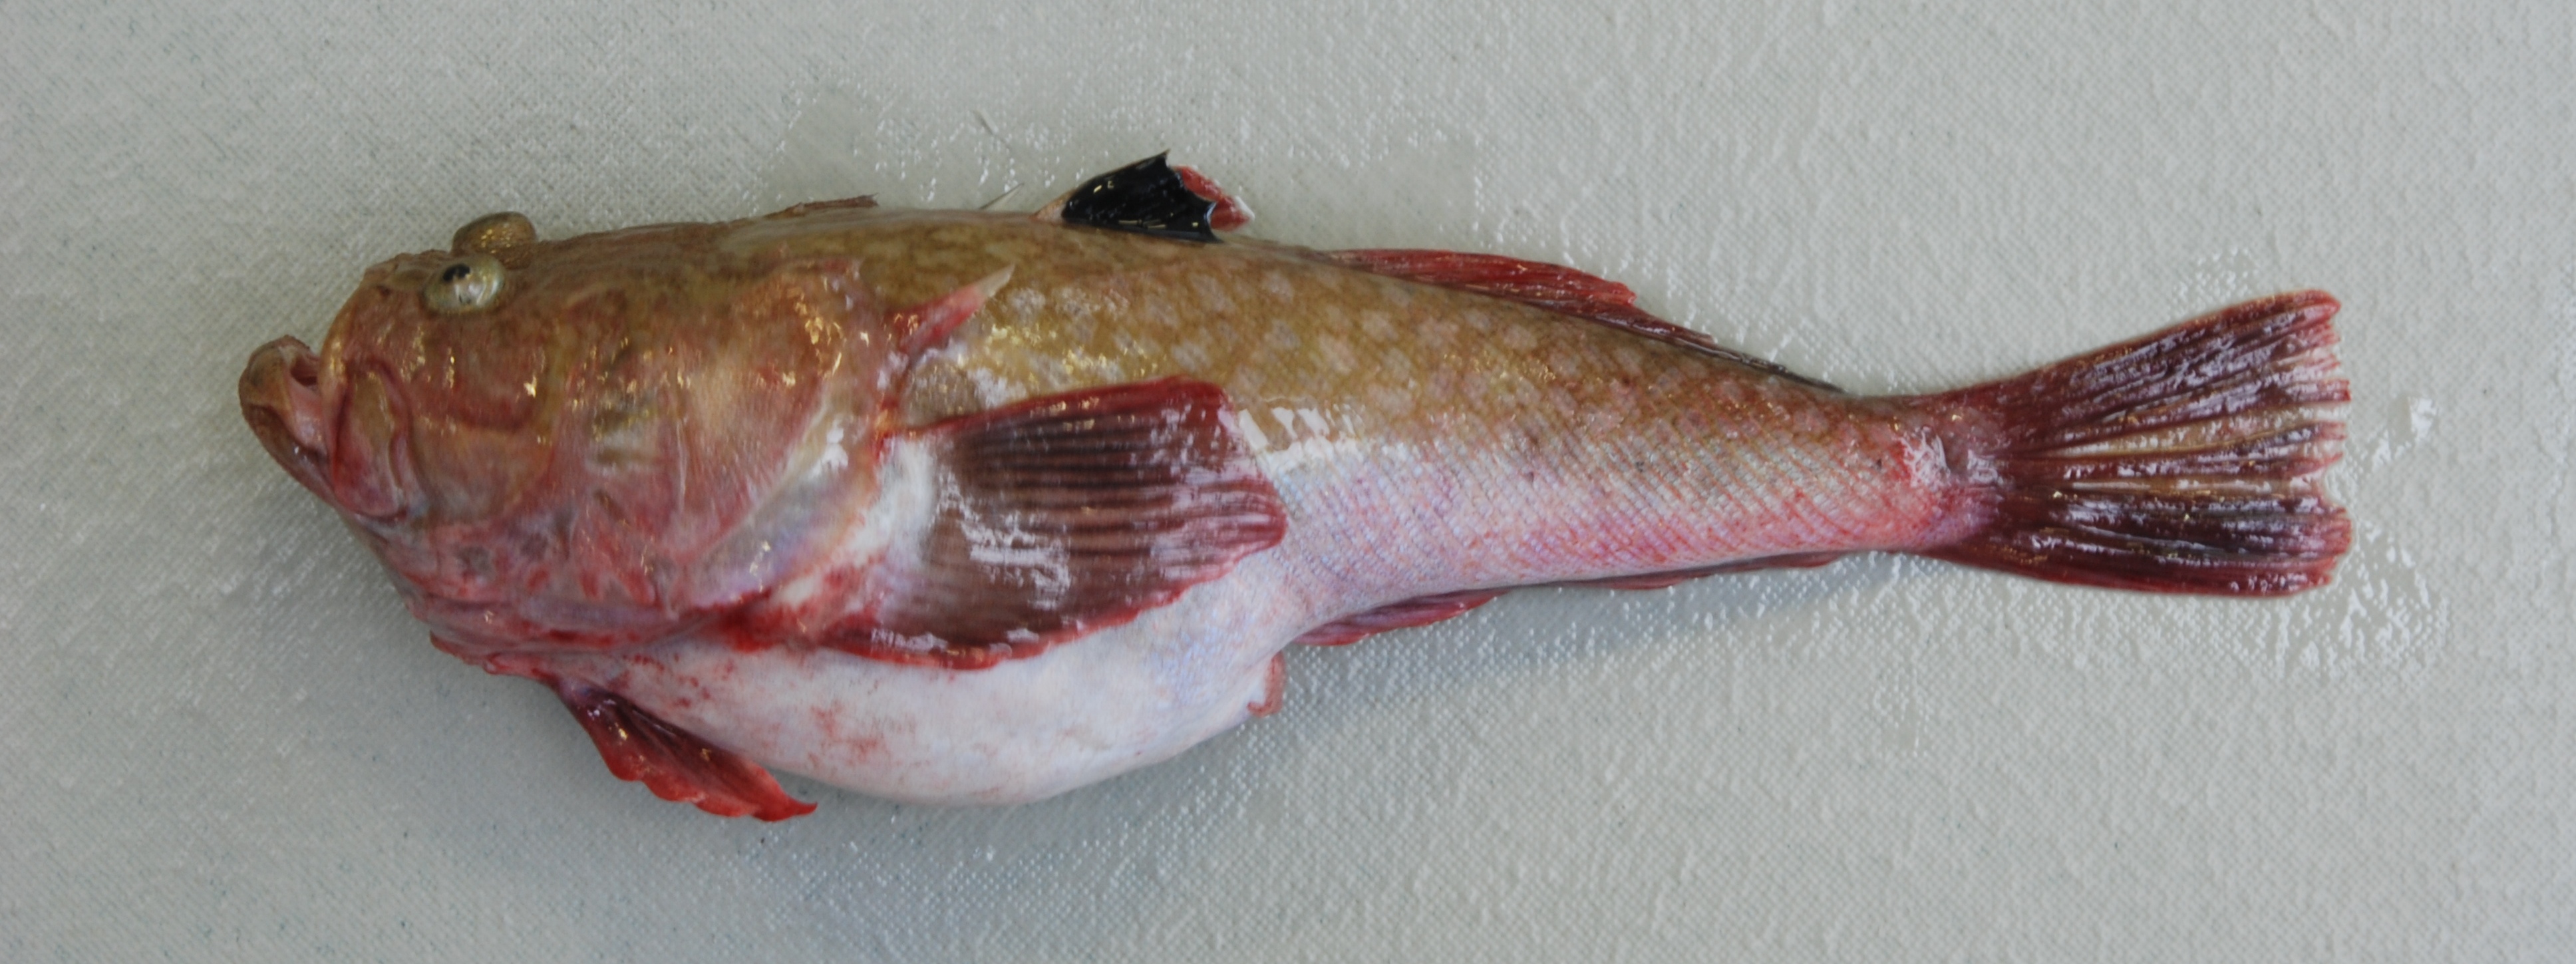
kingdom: Animalia
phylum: Chordata
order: Perciformes
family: Uranoscopidae
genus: Uranoscopus
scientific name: Uranoscopus archionema
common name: Stargazer
